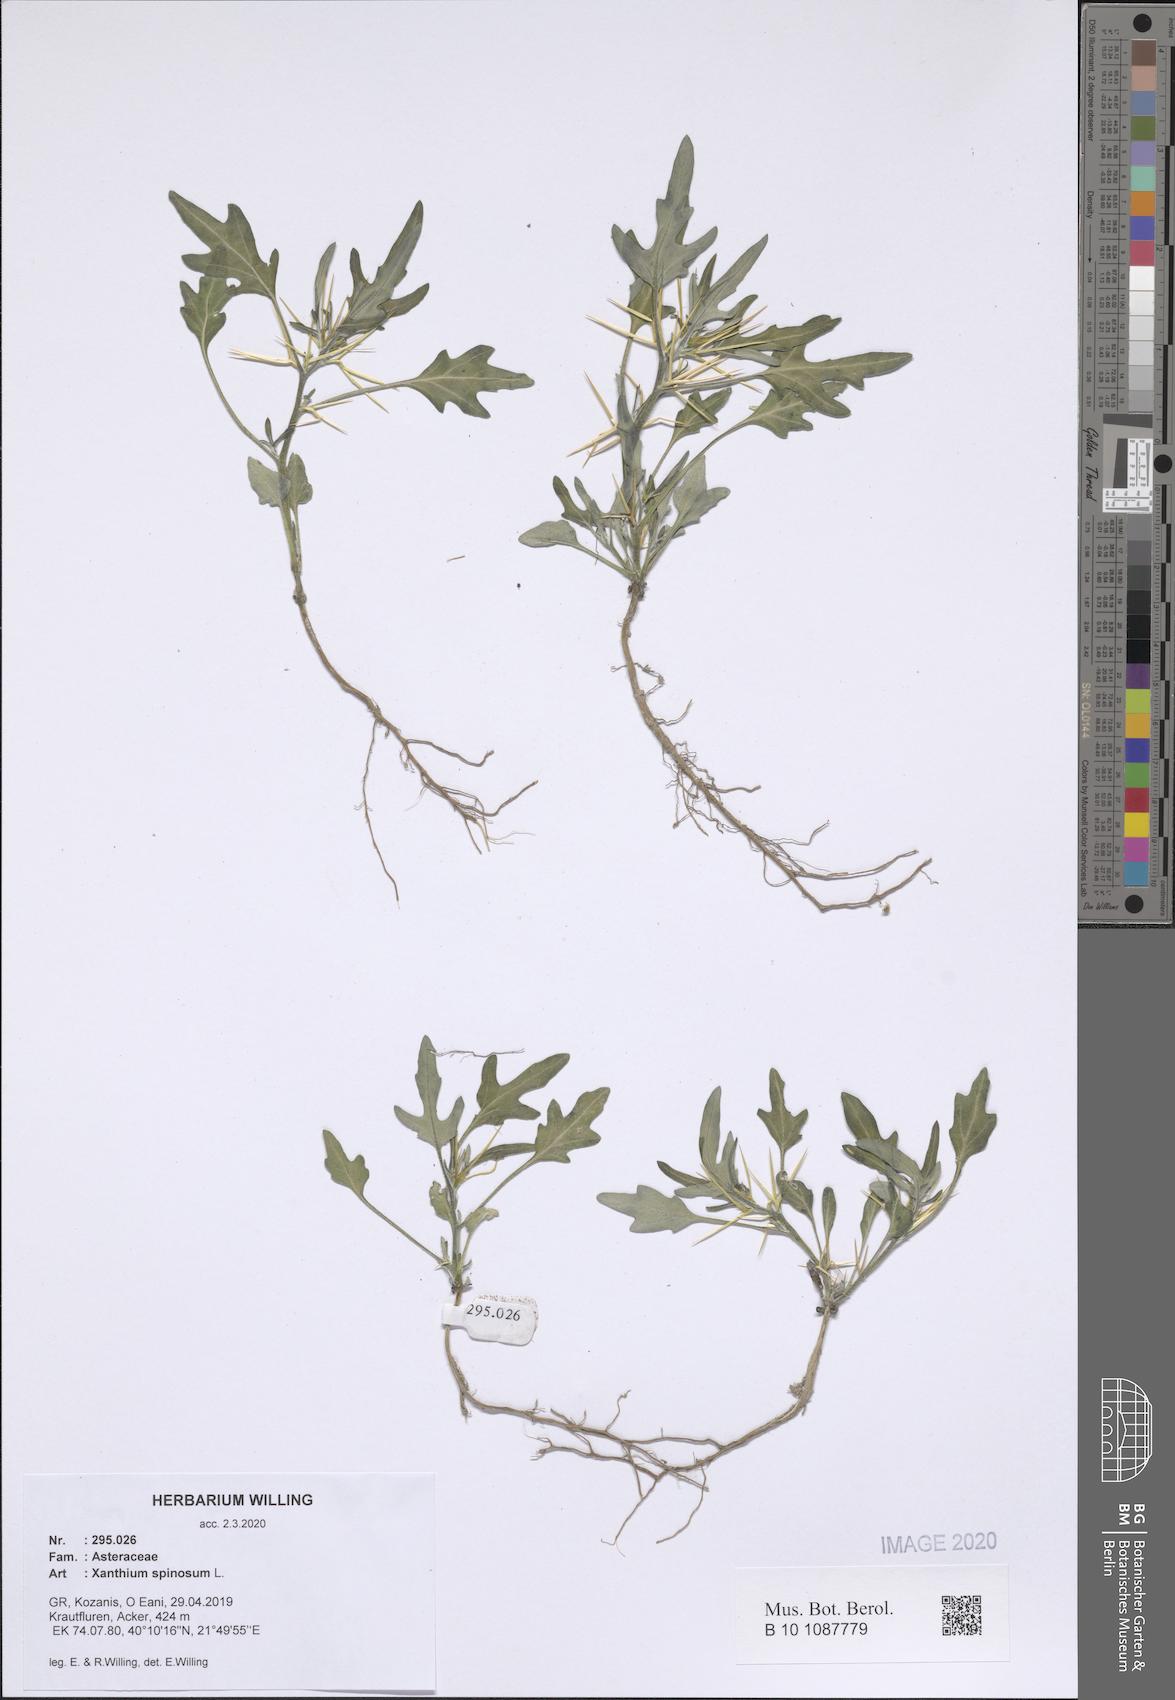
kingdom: Plantae
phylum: Tracheophyta
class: Magnoliopsida
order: Asterales
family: Asteraceae
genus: Xanthium
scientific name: Xanthium spinosum
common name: Spiny cocklebur
